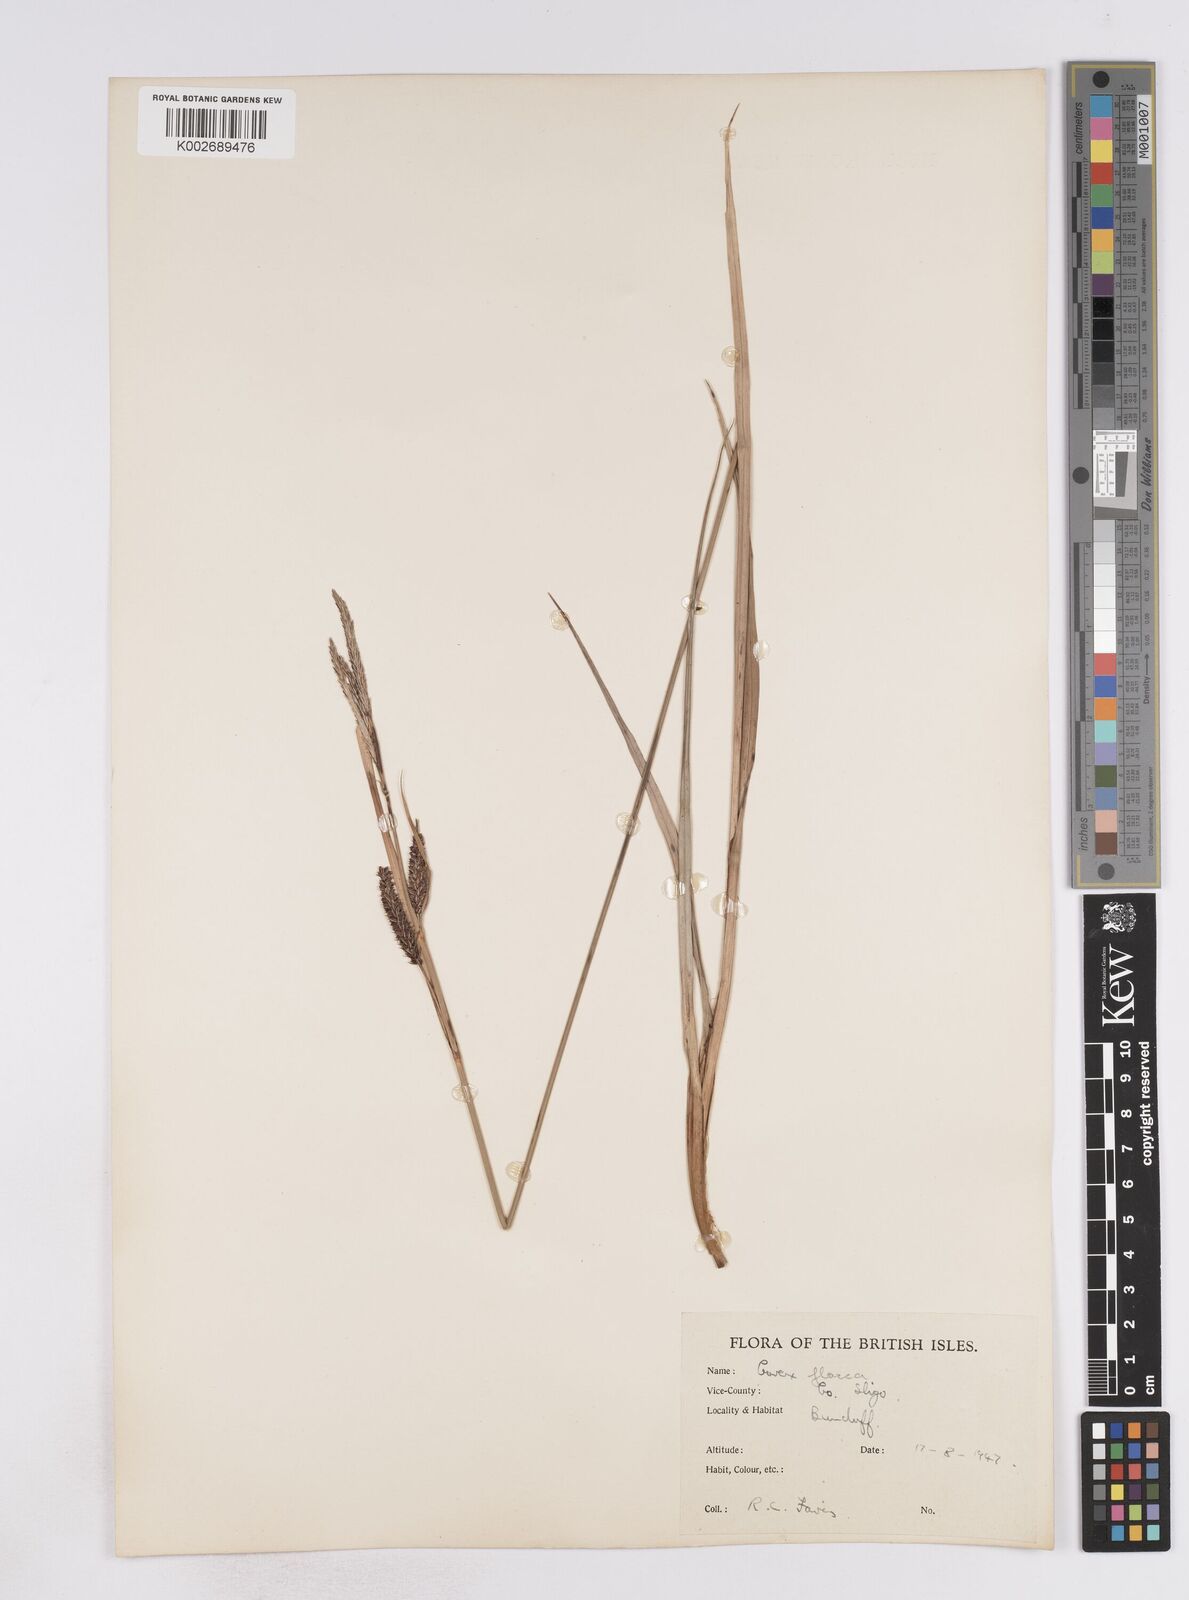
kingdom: Plantae
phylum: Tracheophyta
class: Liliopsida
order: Poales
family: Cyperaceae
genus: Carex
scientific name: Carex flacca
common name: Glaucous sedge
